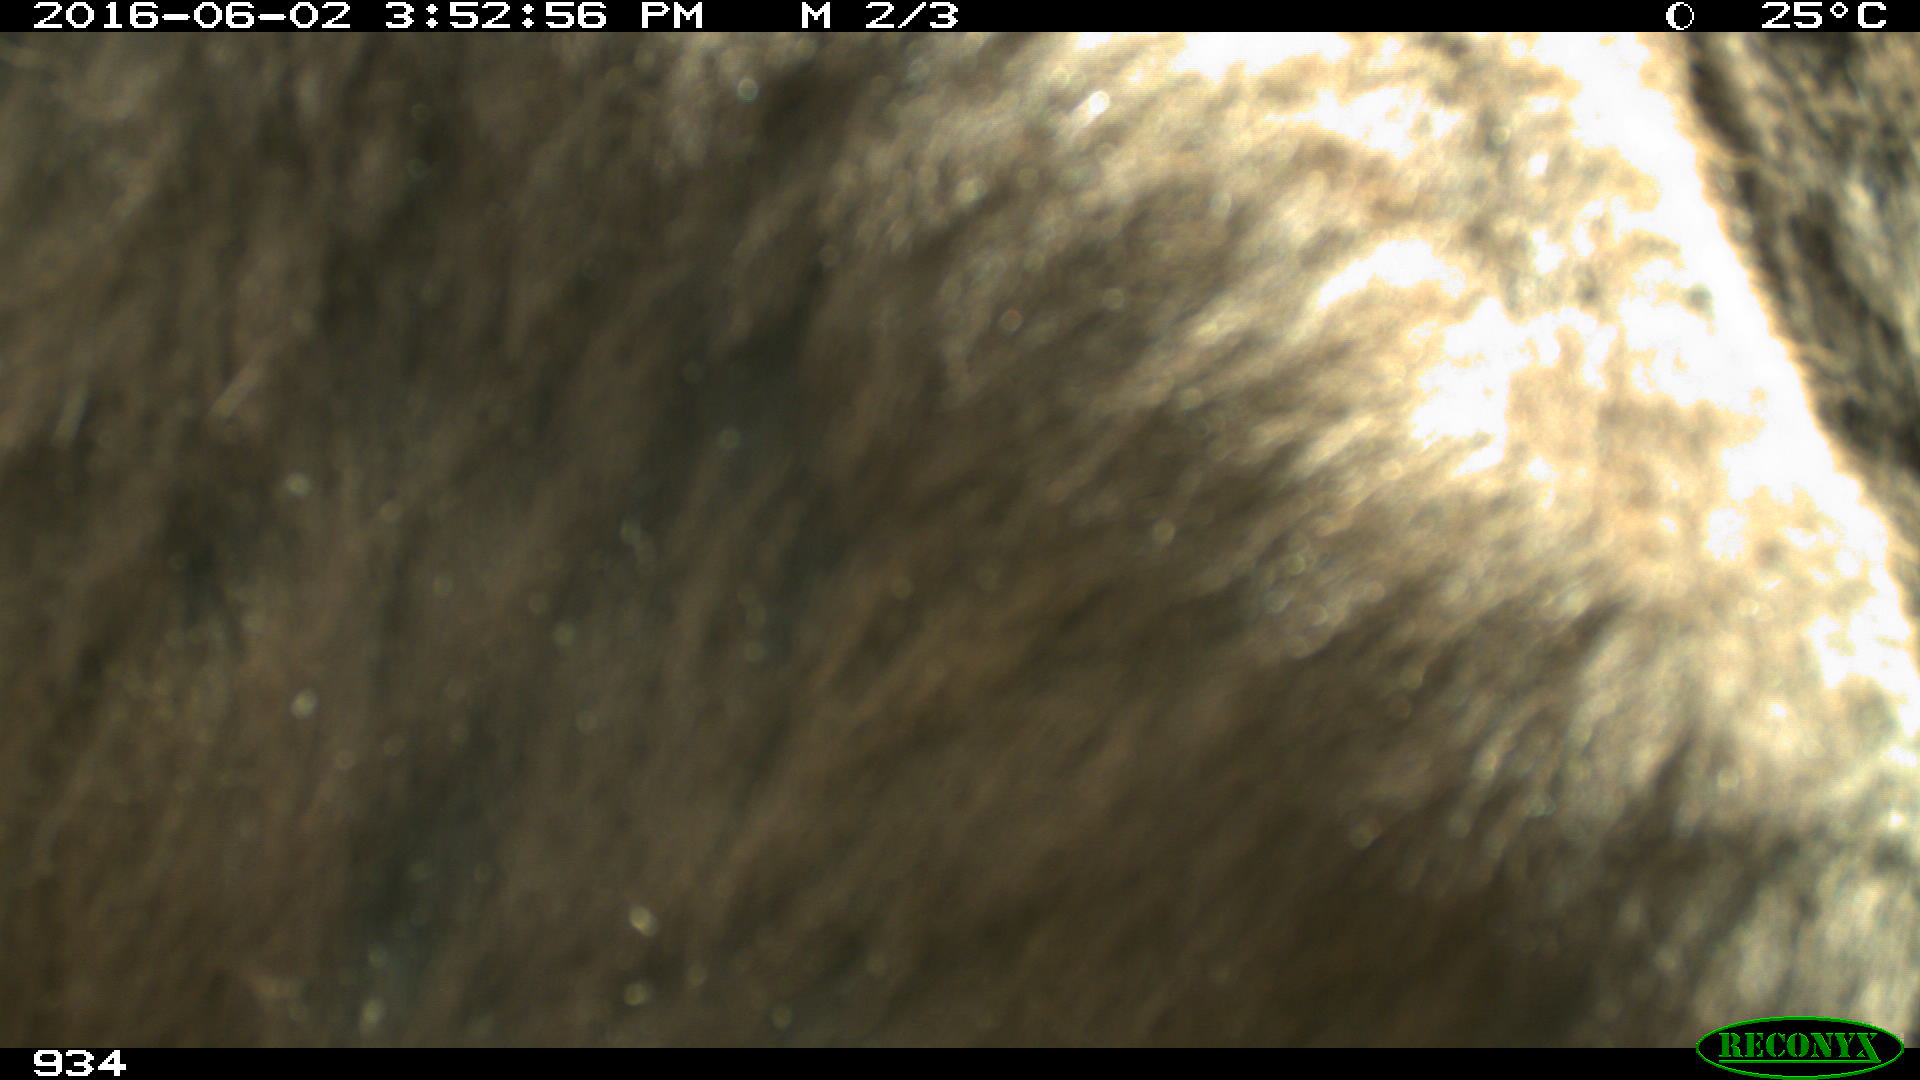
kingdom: Animalia
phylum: Chordata
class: Mammalia
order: Perissodactyla
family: Equidae
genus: Equus
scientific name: Equus caballus
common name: Horse
